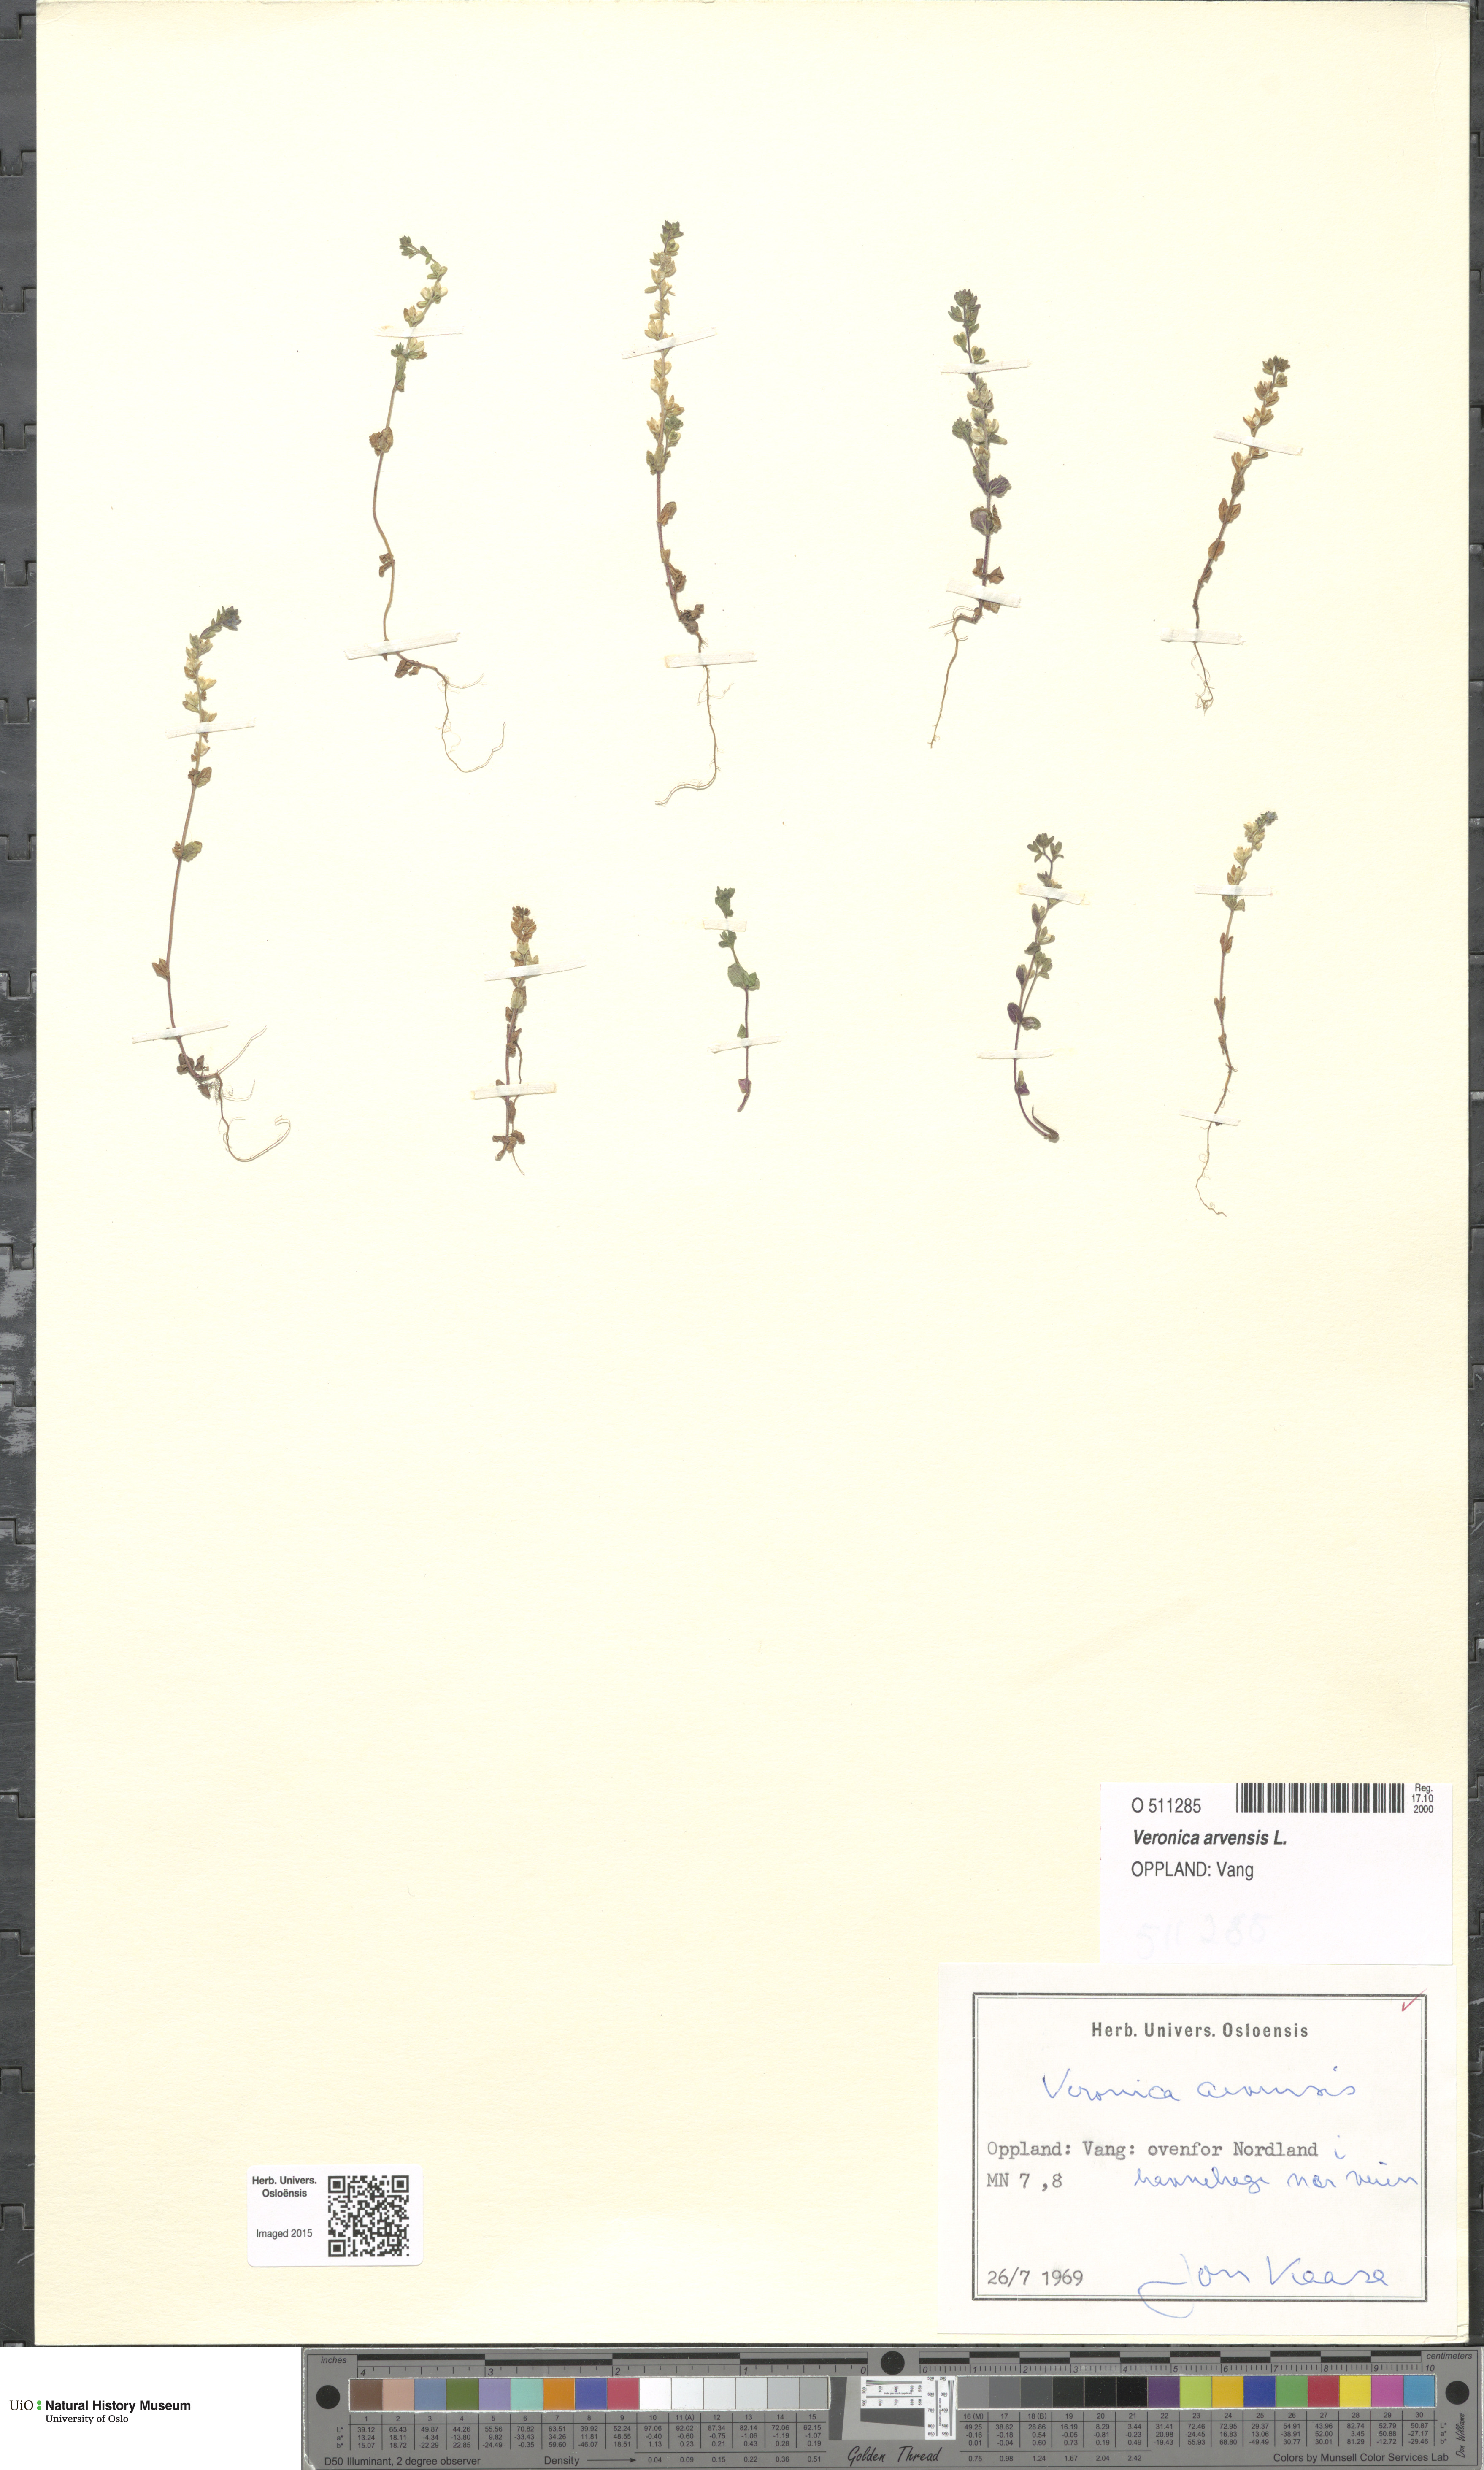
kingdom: Plantae
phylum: Tracheophyta
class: Magnoliopsida
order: Lamiales
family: Plantaginaceae
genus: Veronica
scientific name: Veronica arvensis
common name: Corn speedwell
